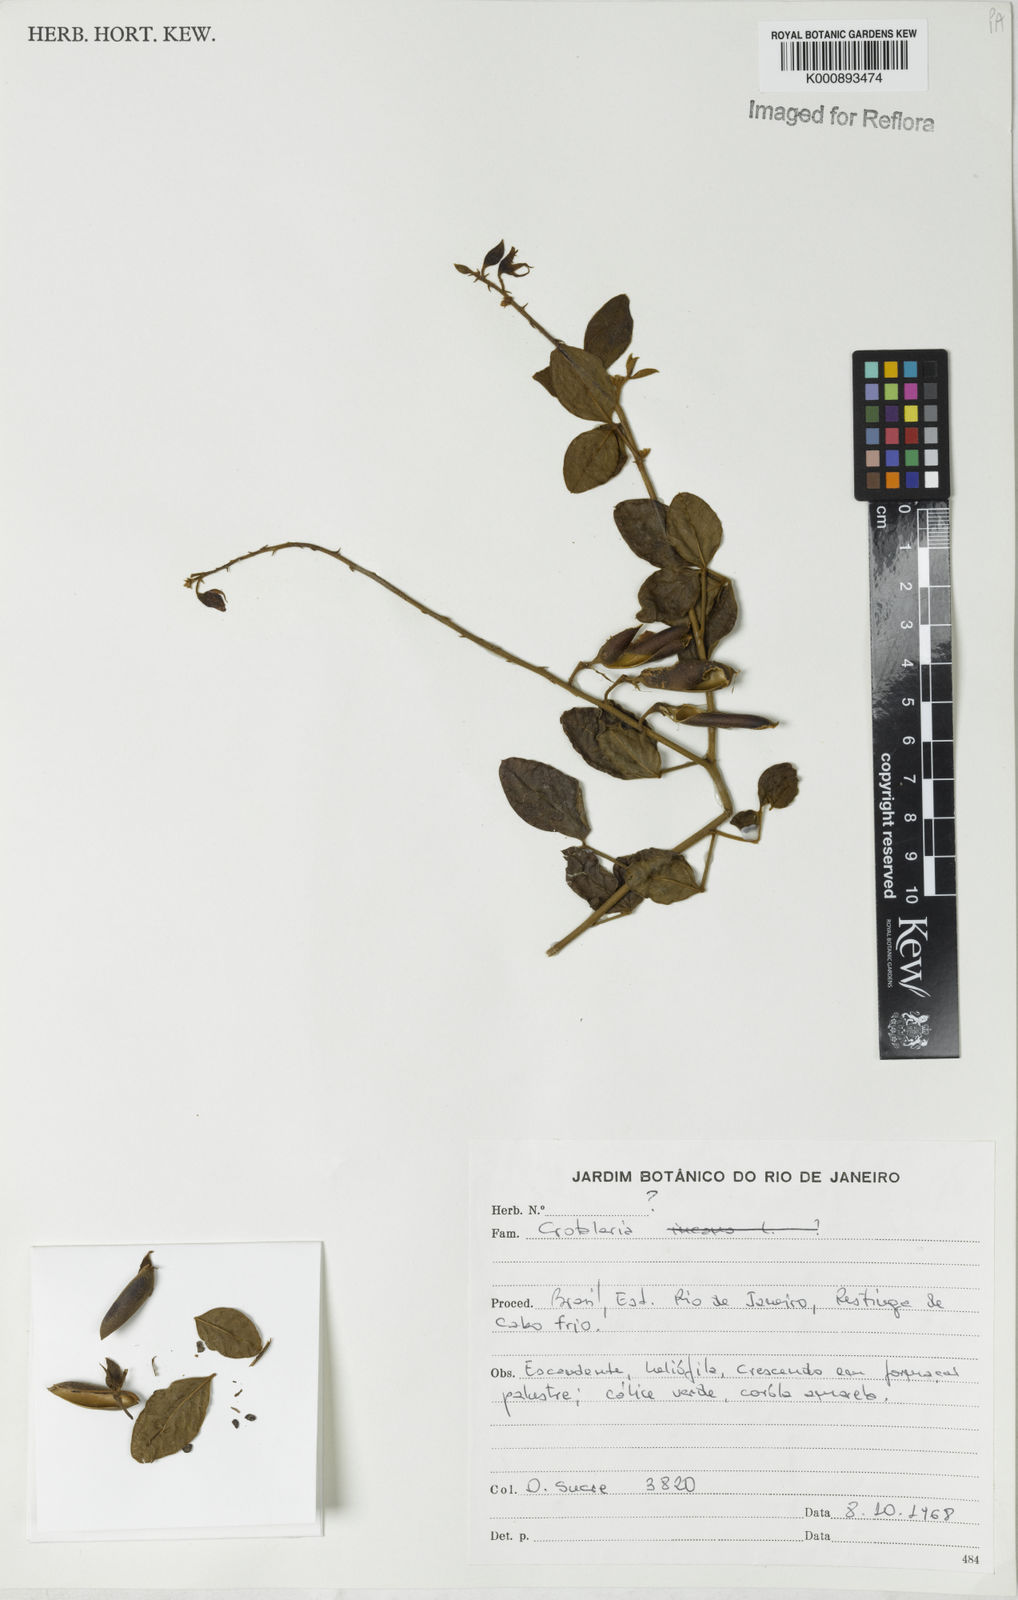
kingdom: Plantae
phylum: Tracheophyta
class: Magnoliopsida
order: Fabales
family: Fabaceae
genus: Crotalaria
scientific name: Crotalaria
